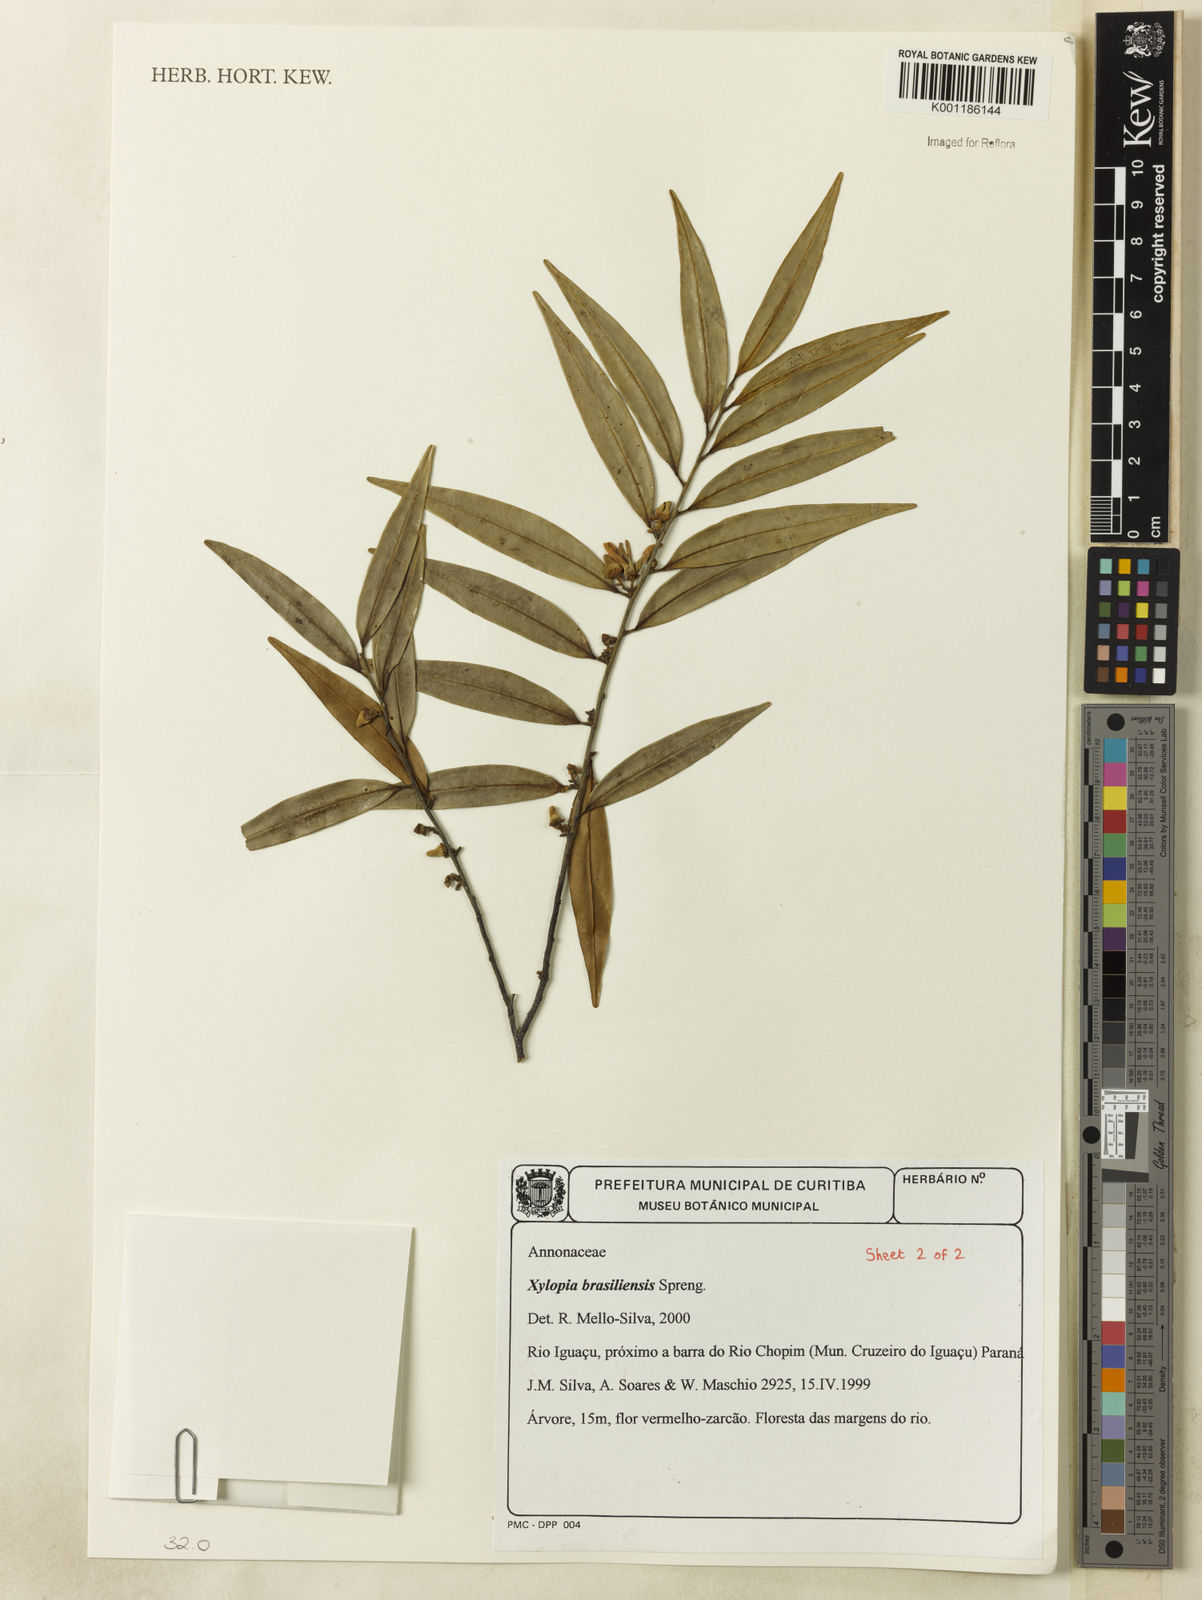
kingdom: Plantae
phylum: Tracheophyta
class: Magnoliopsida
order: Magnoliales
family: Annonaceae
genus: Xylopia
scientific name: Xylopia brasiliensis
